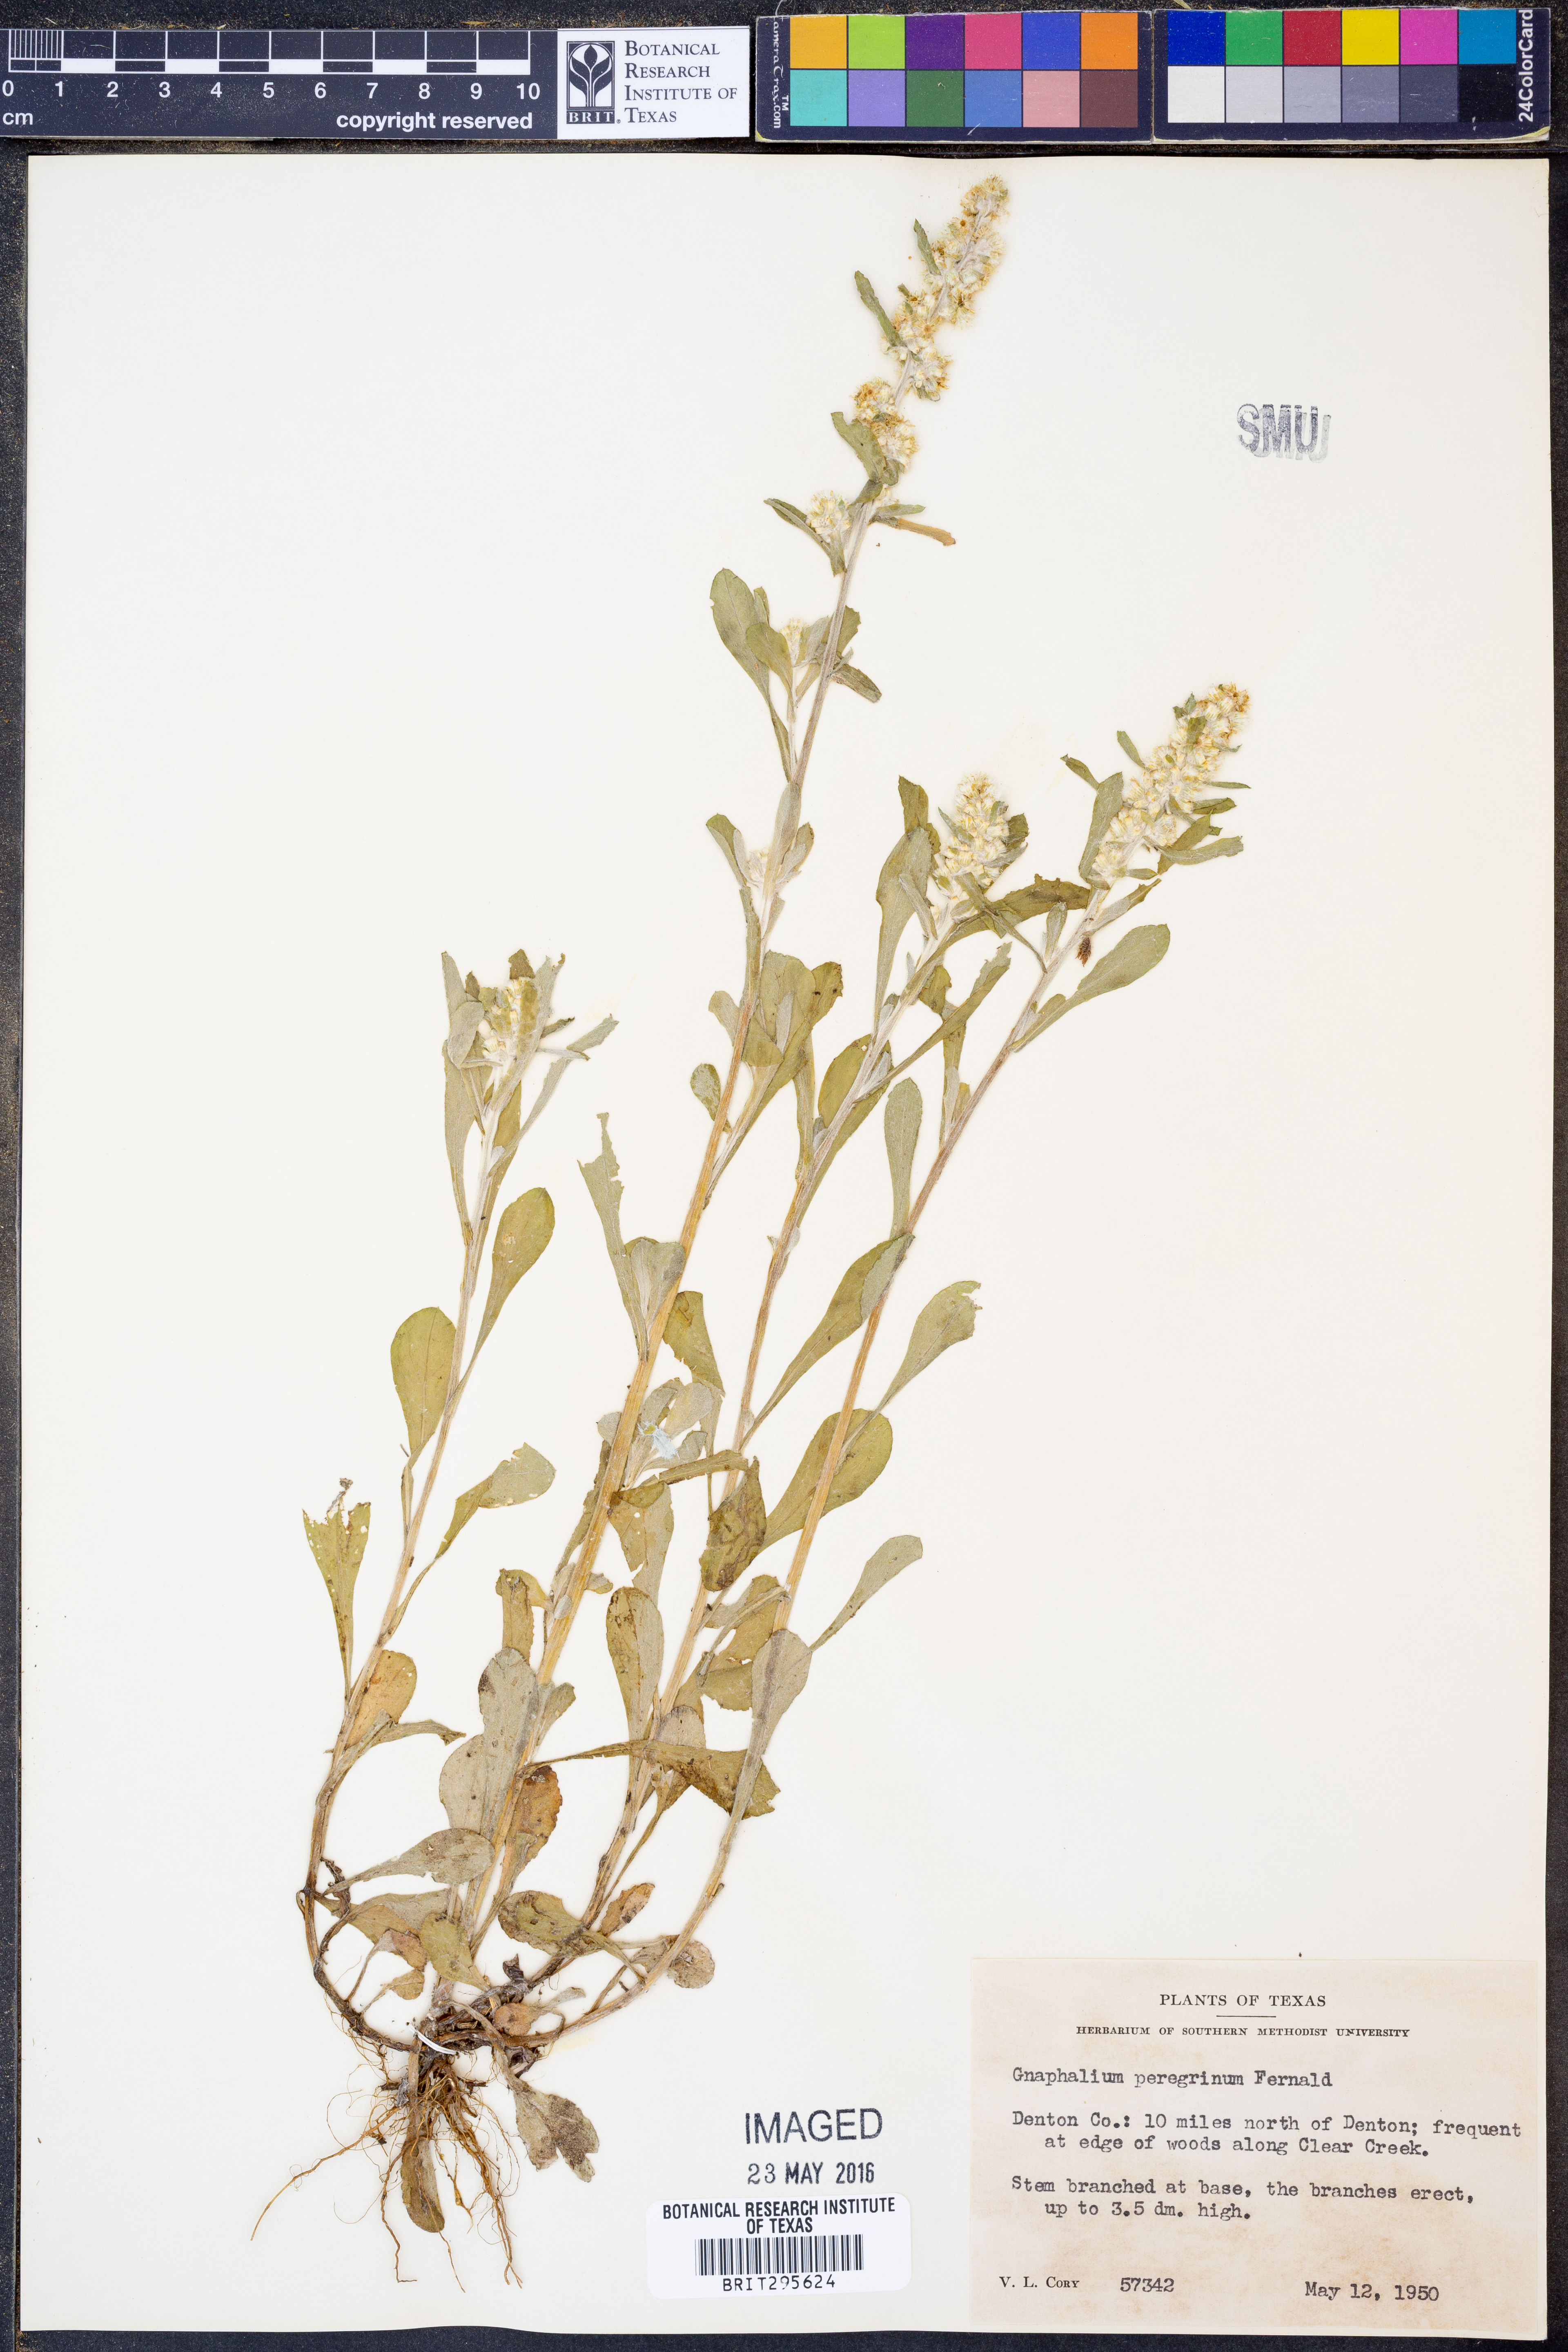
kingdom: Plantae
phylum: Tracheophyta
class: Magnoliopsida
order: Asterales
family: Asteraceae
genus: Gamochaeta
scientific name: Gamochaeta pensylvanica
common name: Pennsylvania everlasting
